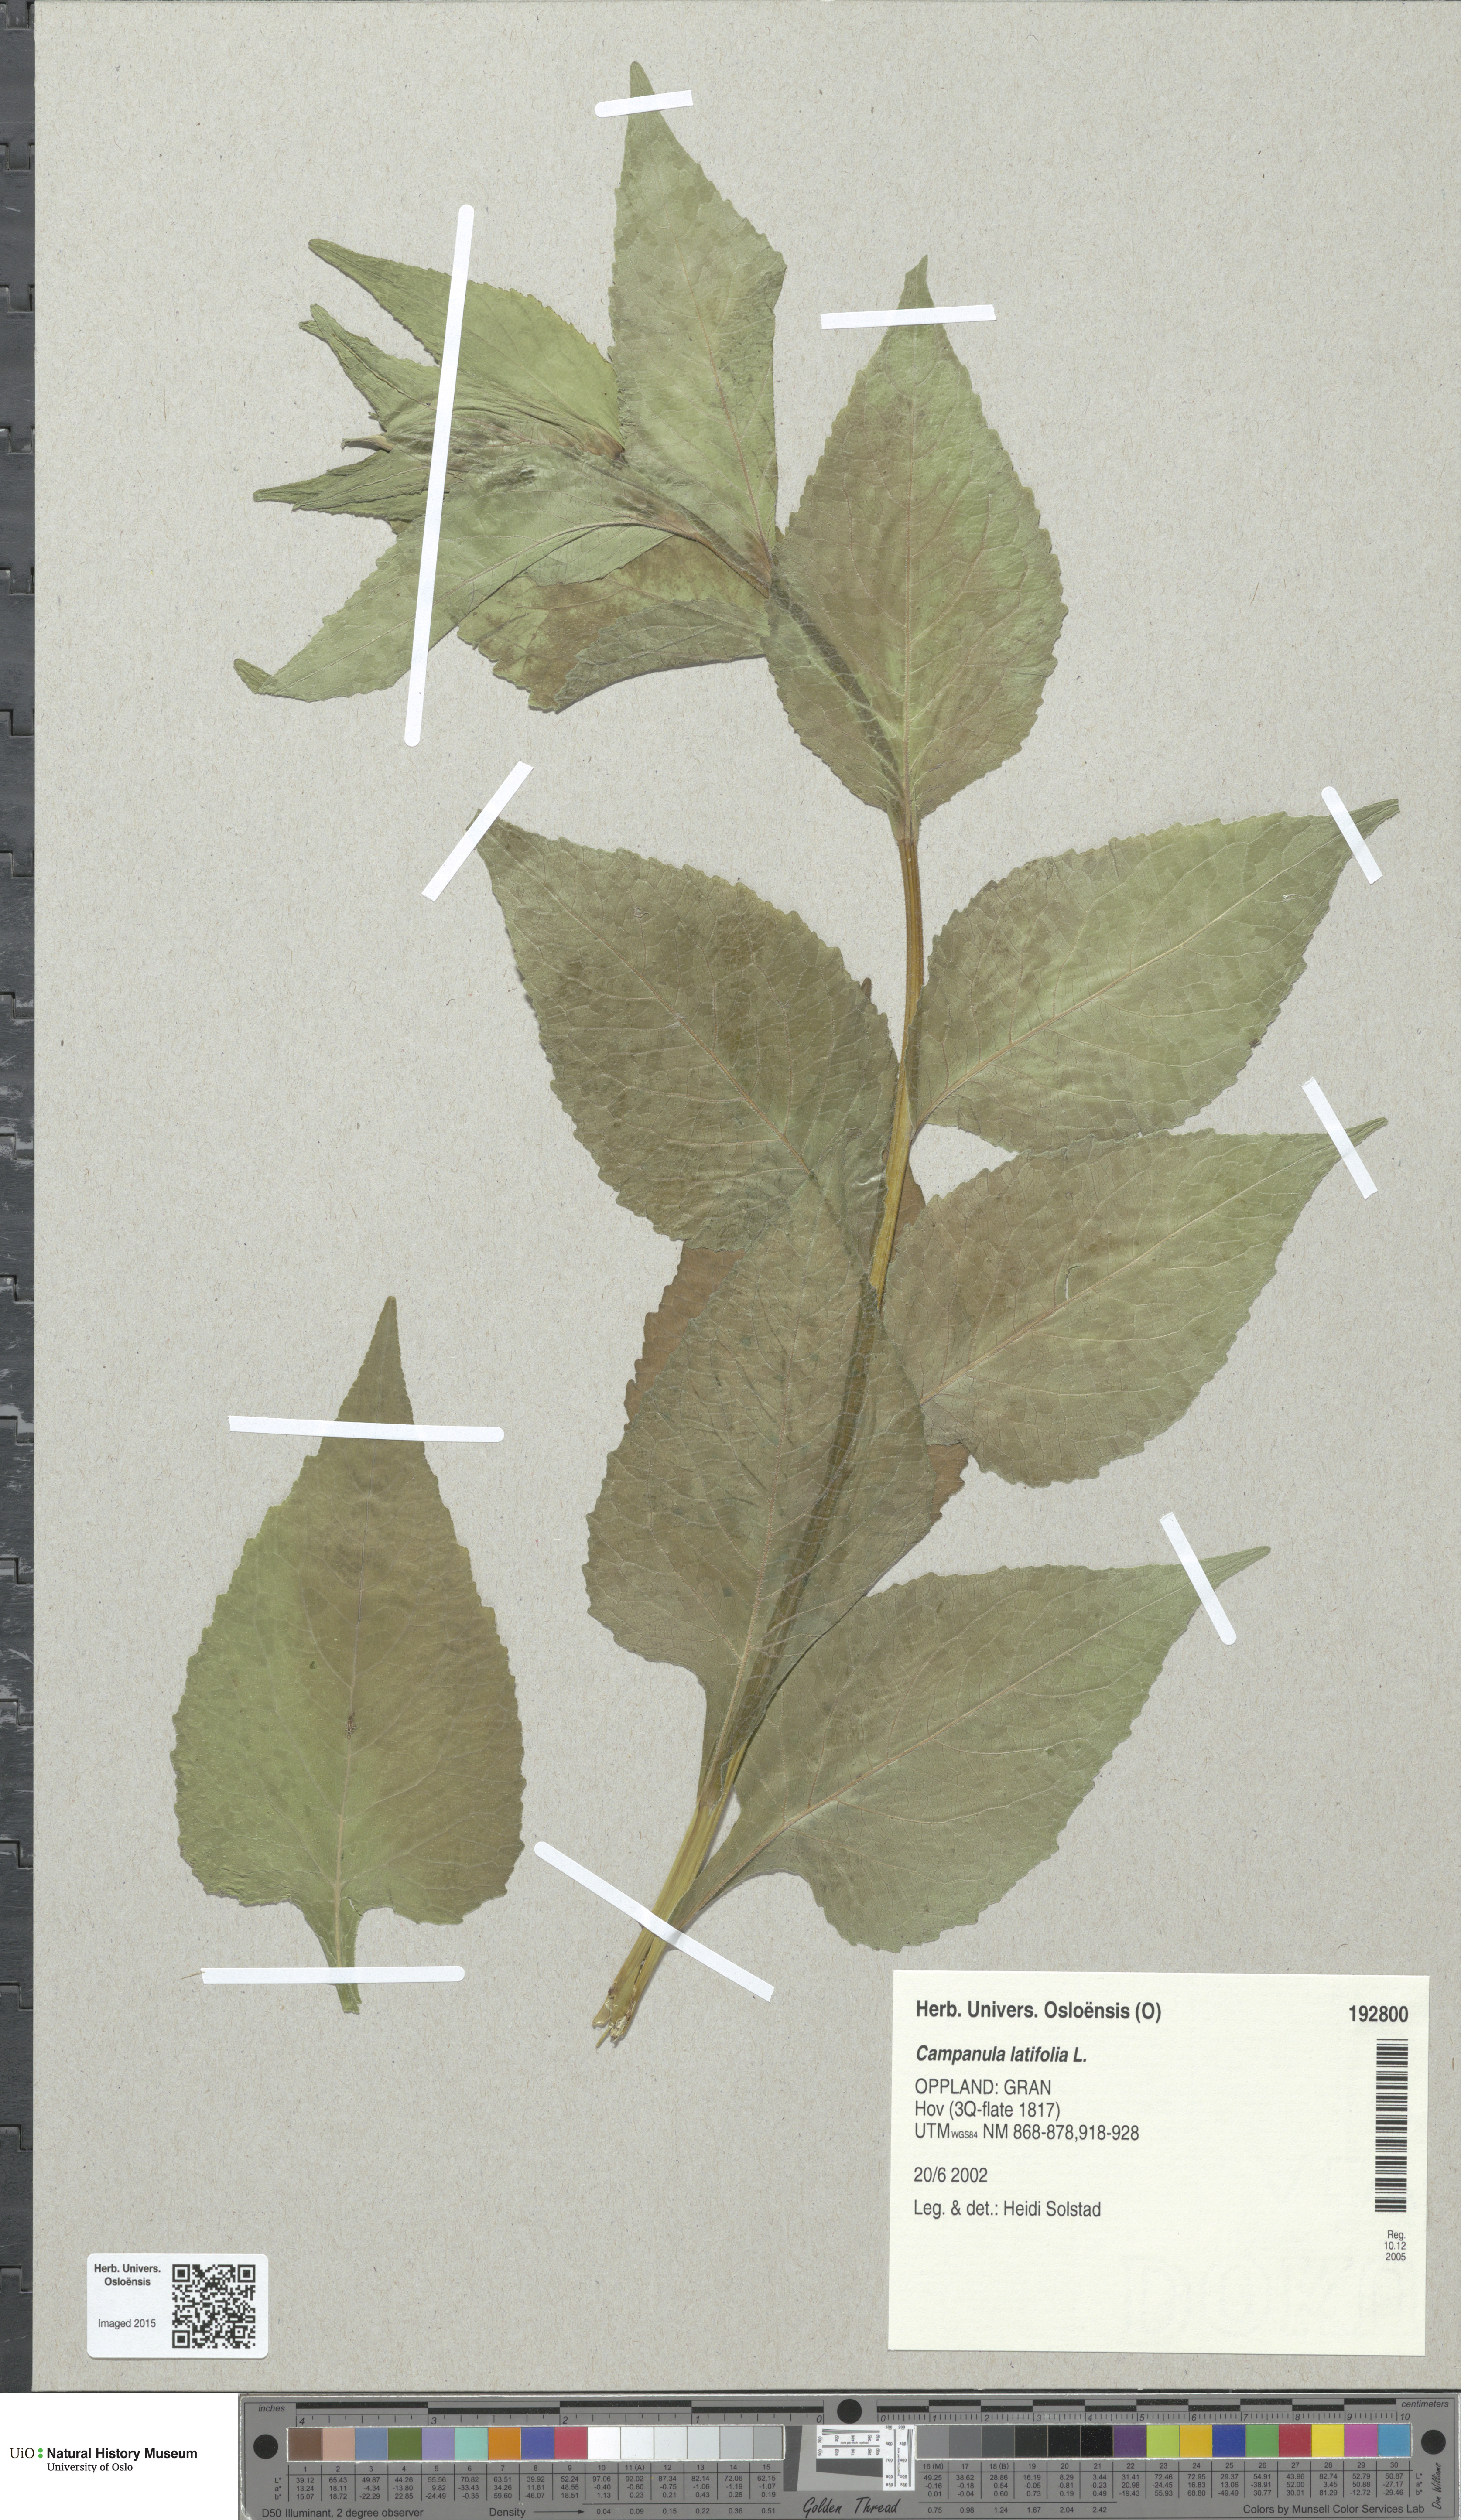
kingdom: Plantae
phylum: Tracheophyta
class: Magnoliopsida
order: Asterales
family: Campanulaceae
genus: Campanula
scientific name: Campanula latifolia
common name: Giant bellflower
